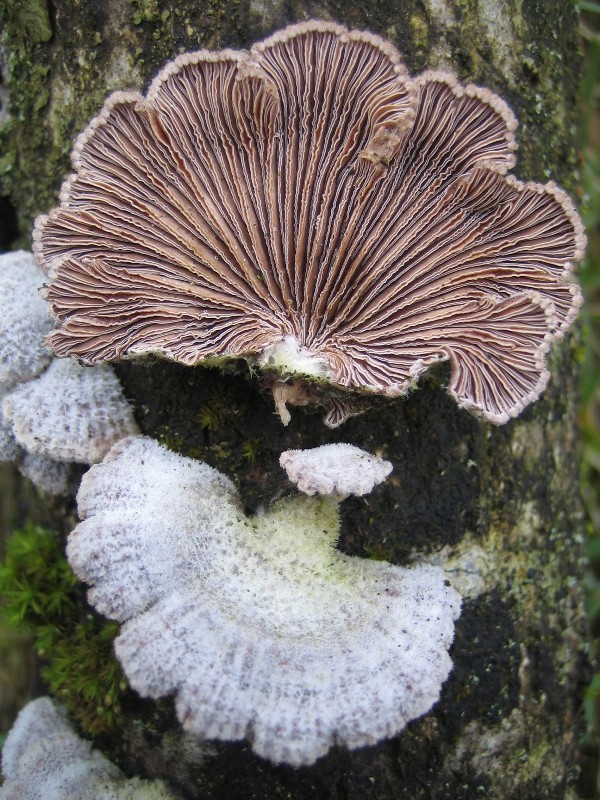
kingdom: Fungi
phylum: Basidiomycota
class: Agaricomycetes
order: Agaricales
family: Schizophyllaceae
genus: Schizophyllum
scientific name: Schizophyllum commune
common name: kløvblad
